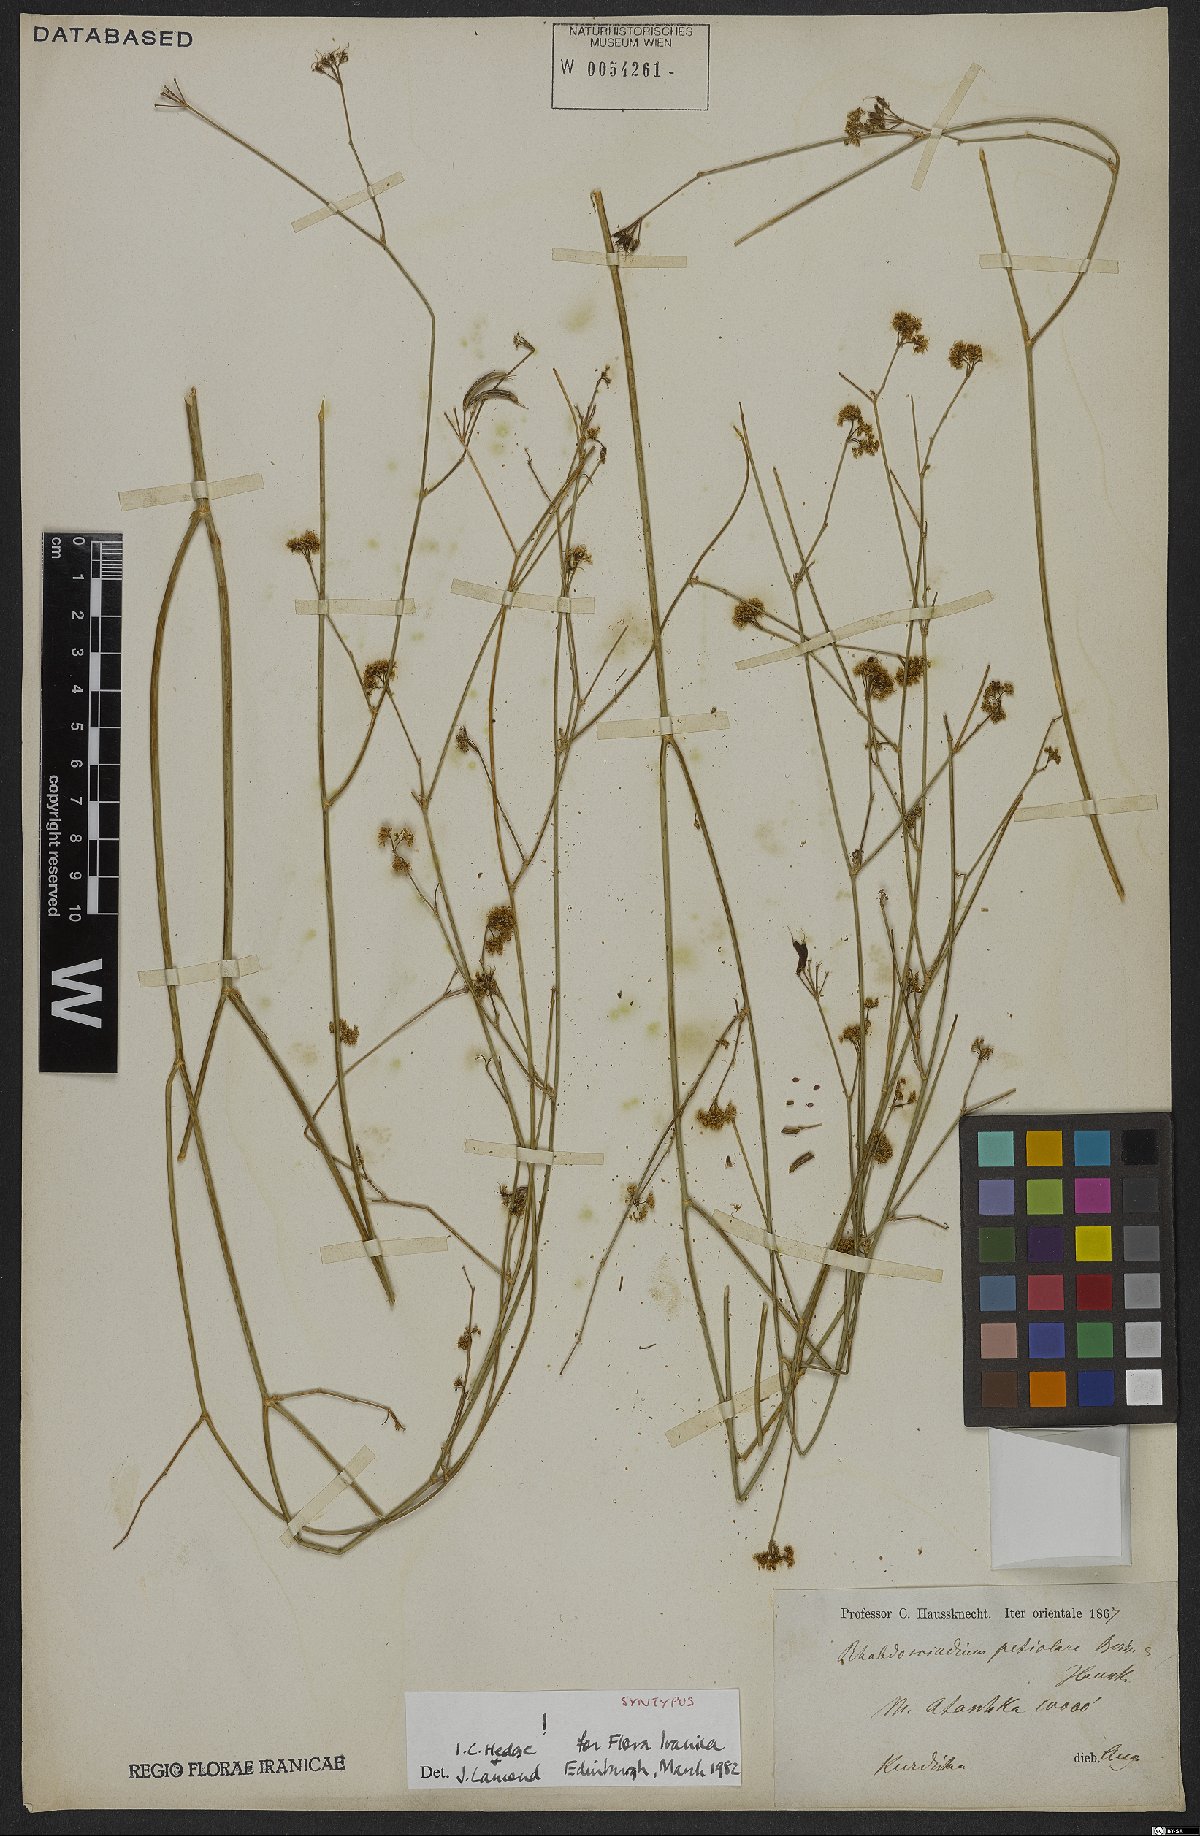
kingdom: Plantae
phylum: Tracheophyta
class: Magnoliopsida
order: Apiales
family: Apiaceae
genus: Rhabdosciadium
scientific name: Rhabdosciadium petiolare
